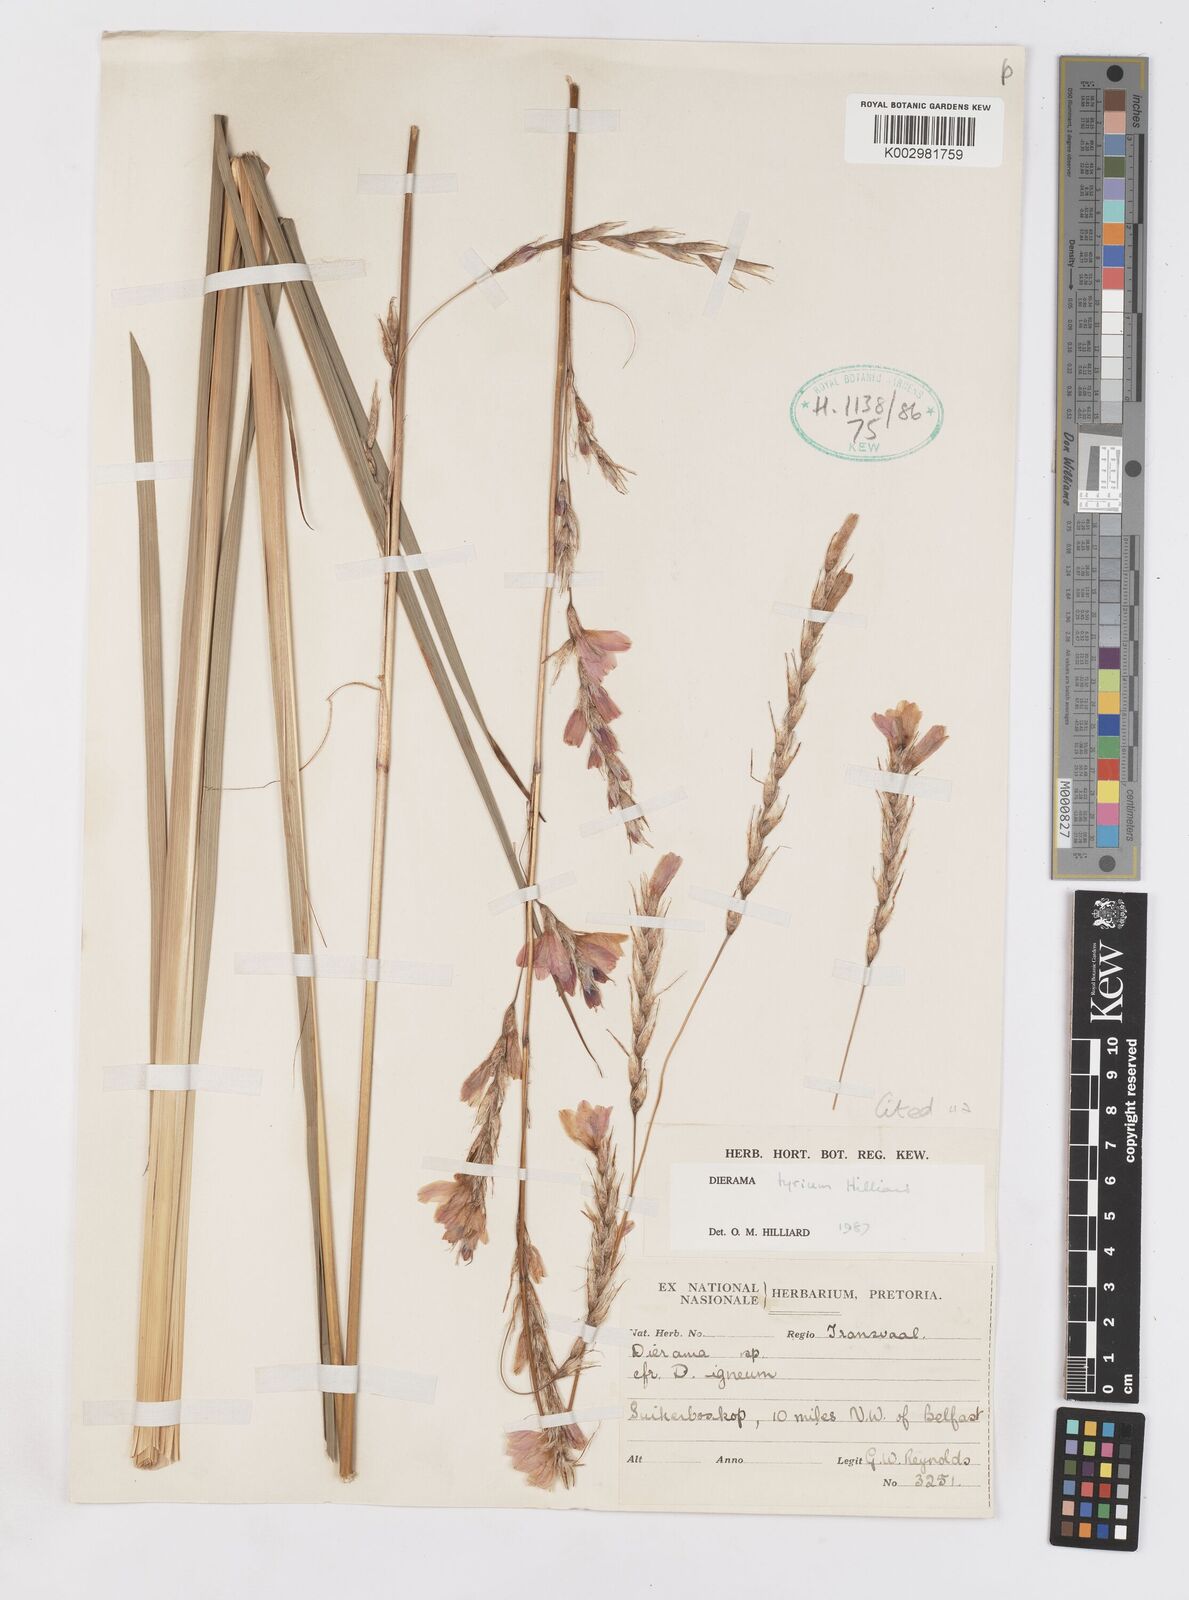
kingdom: Plantae
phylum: Tracheophyta
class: Liliopsida
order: Asparagales
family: Iridaceae
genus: Dierama
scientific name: Dierama tyrium
